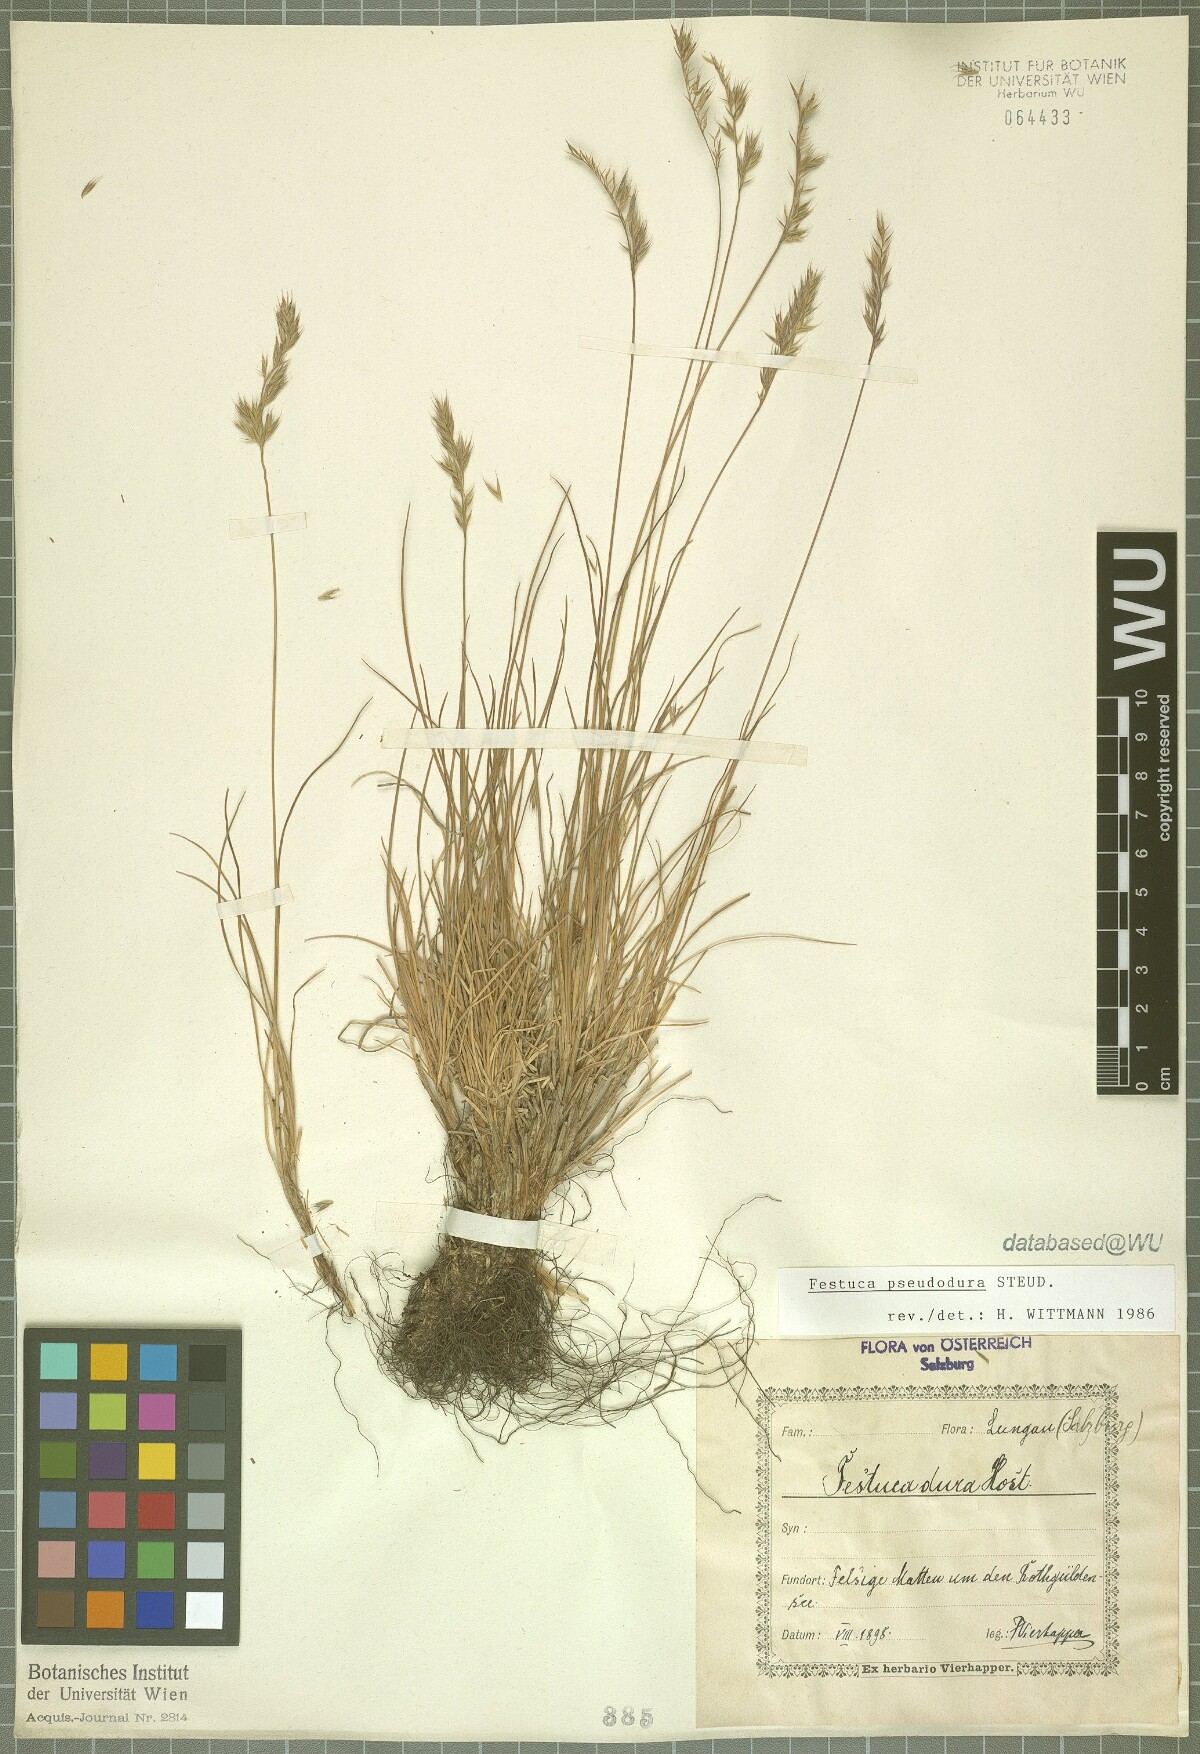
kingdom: Plantae
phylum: Tracheophyta
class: Liliopsida
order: Poales
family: Poaceae
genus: Festuca
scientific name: Festuca pseudodura
